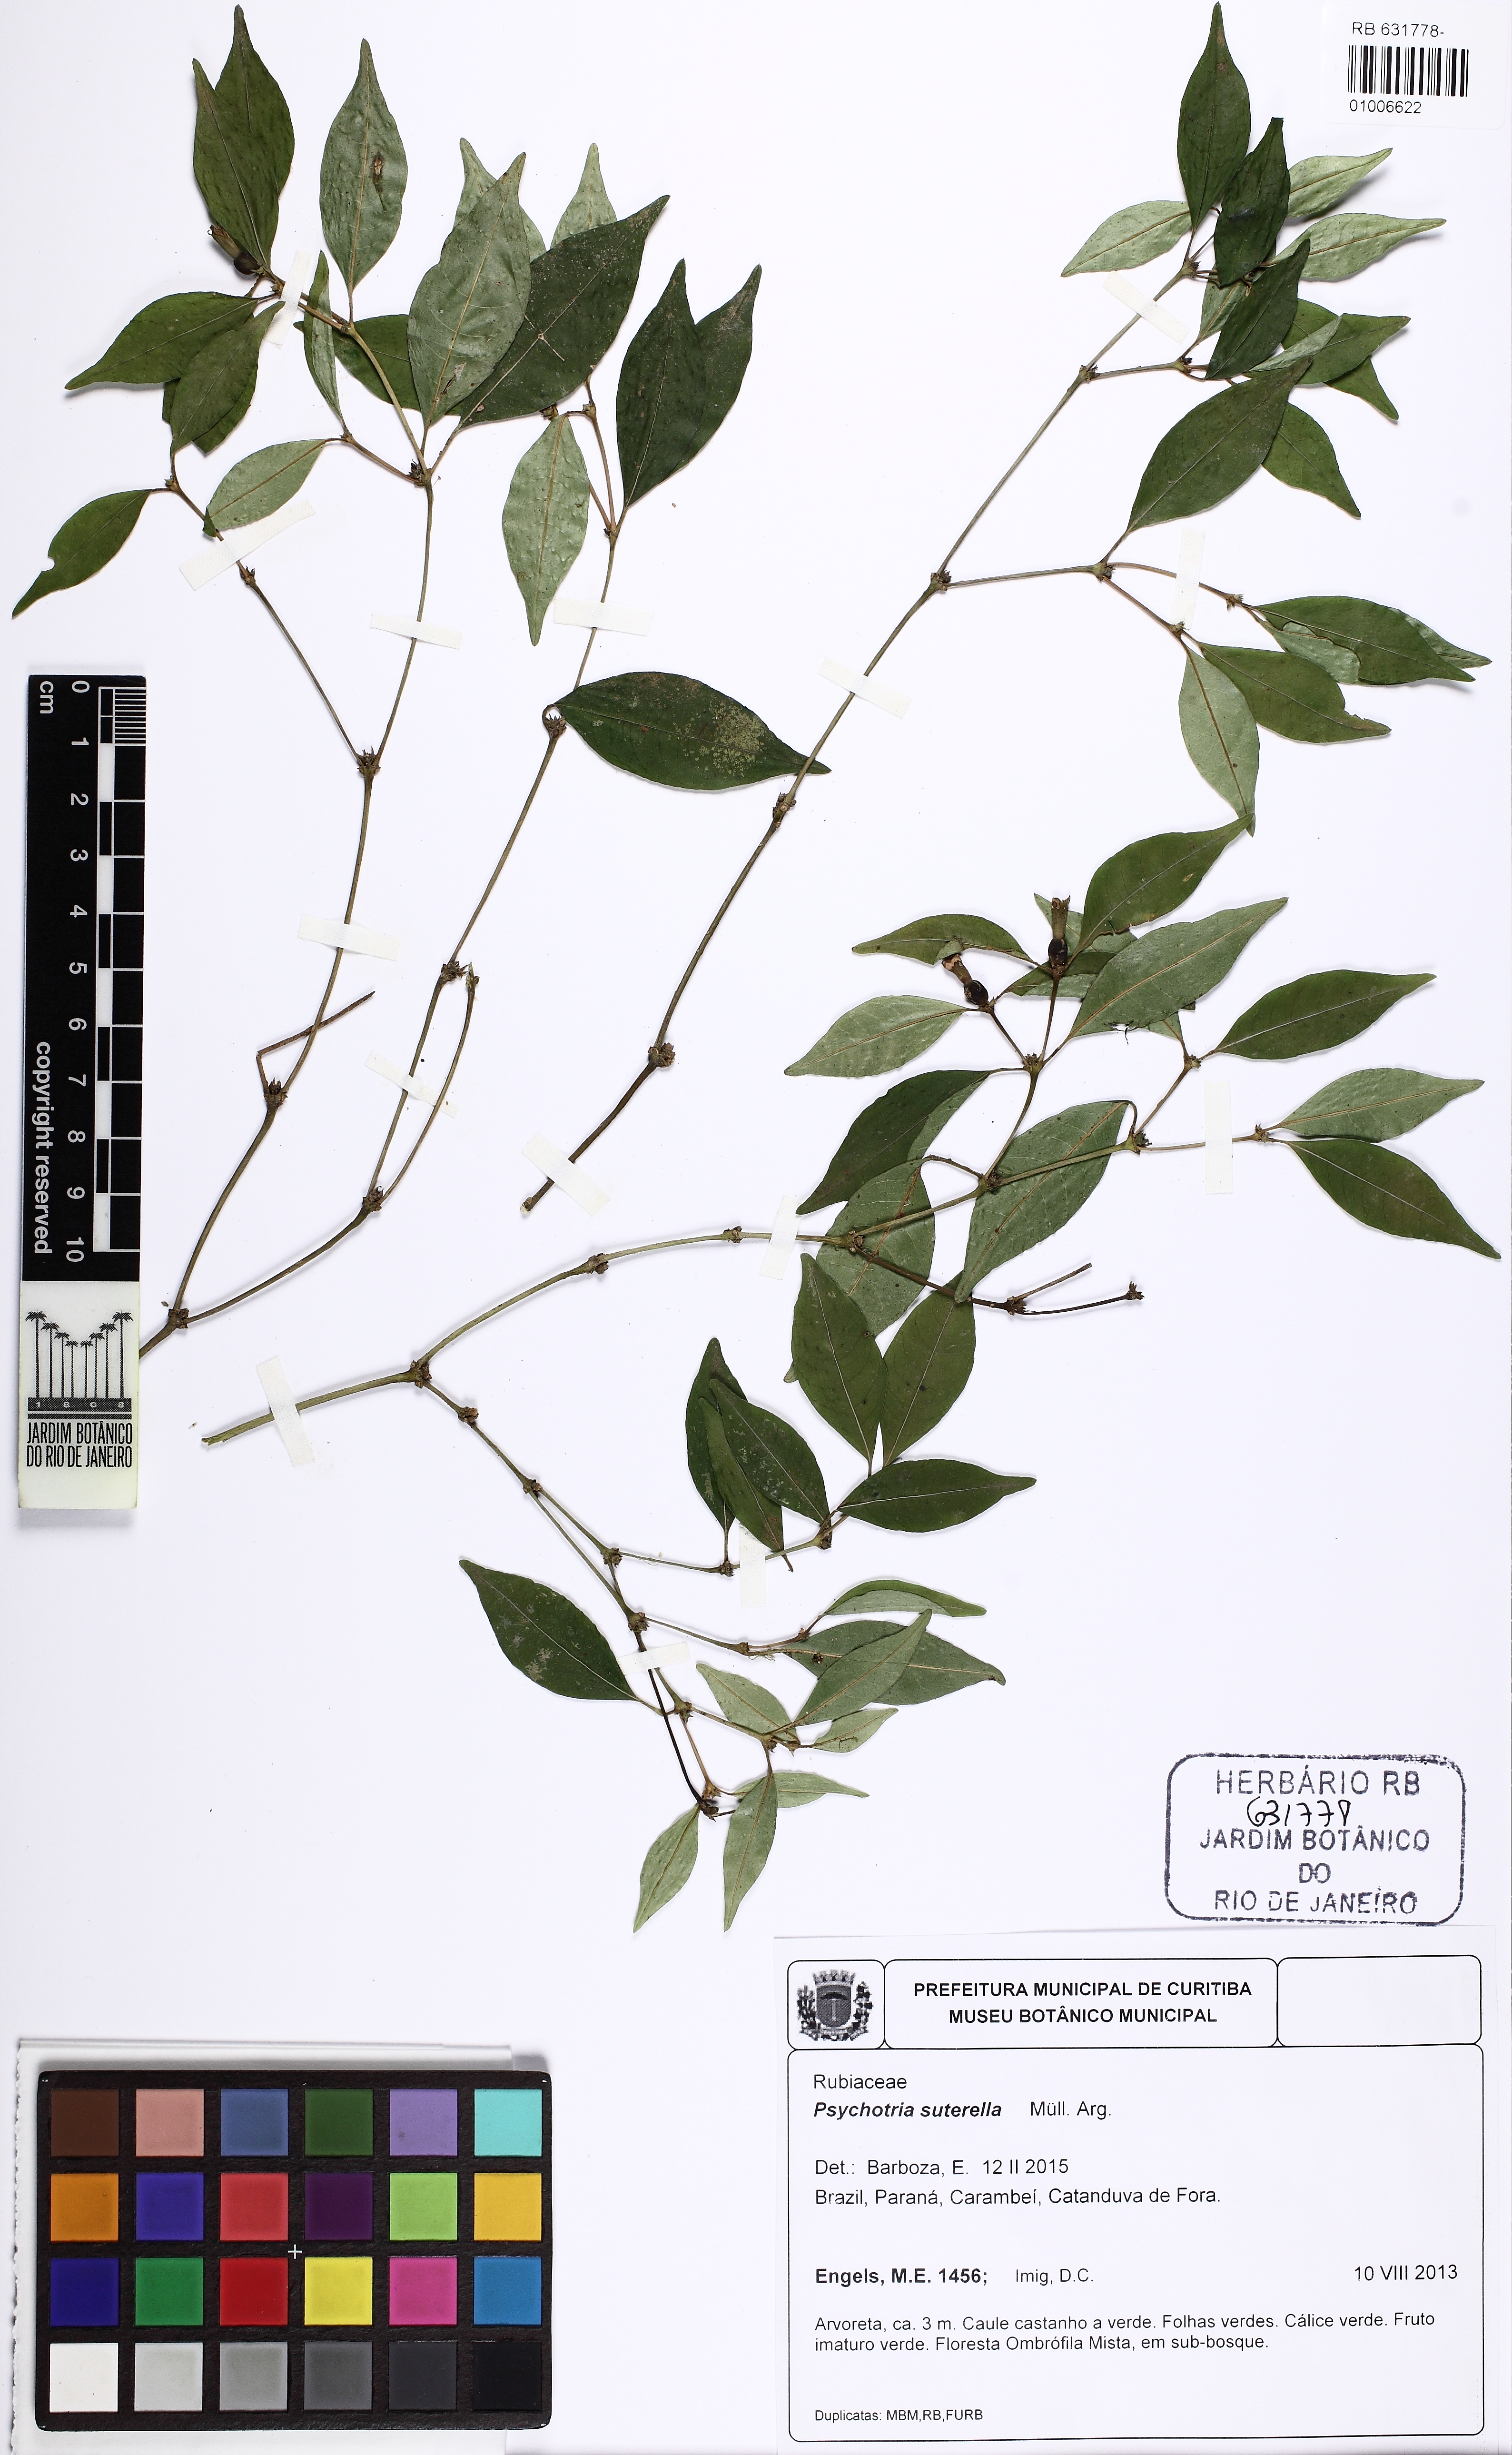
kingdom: Plantae
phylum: Tracheophyta
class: Magnoliopsida
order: Gentianales
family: Rubiaceae
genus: Psychotria
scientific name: Psychotria suterella
